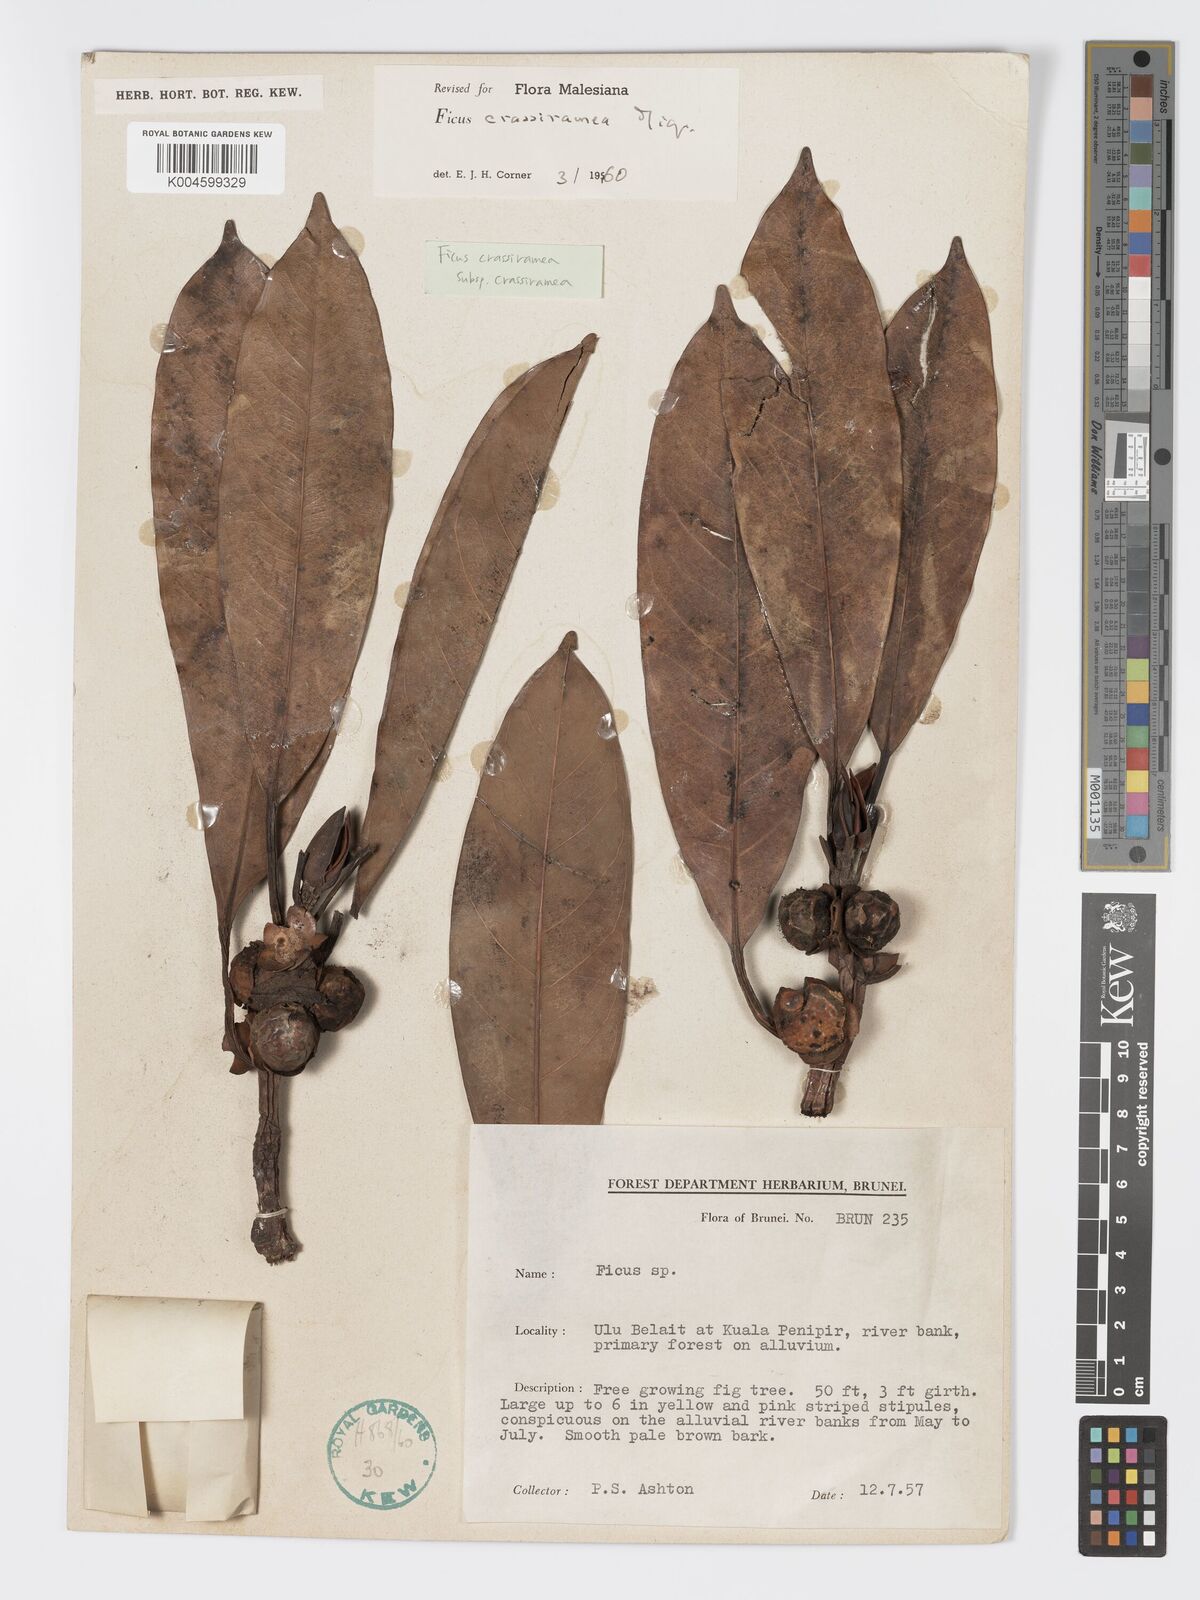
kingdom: Plantae
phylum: Tracheophyta
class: Magnoliopsida
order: Rosales
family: Moraceae
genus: Ficus
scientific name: Ficus crassiramea
